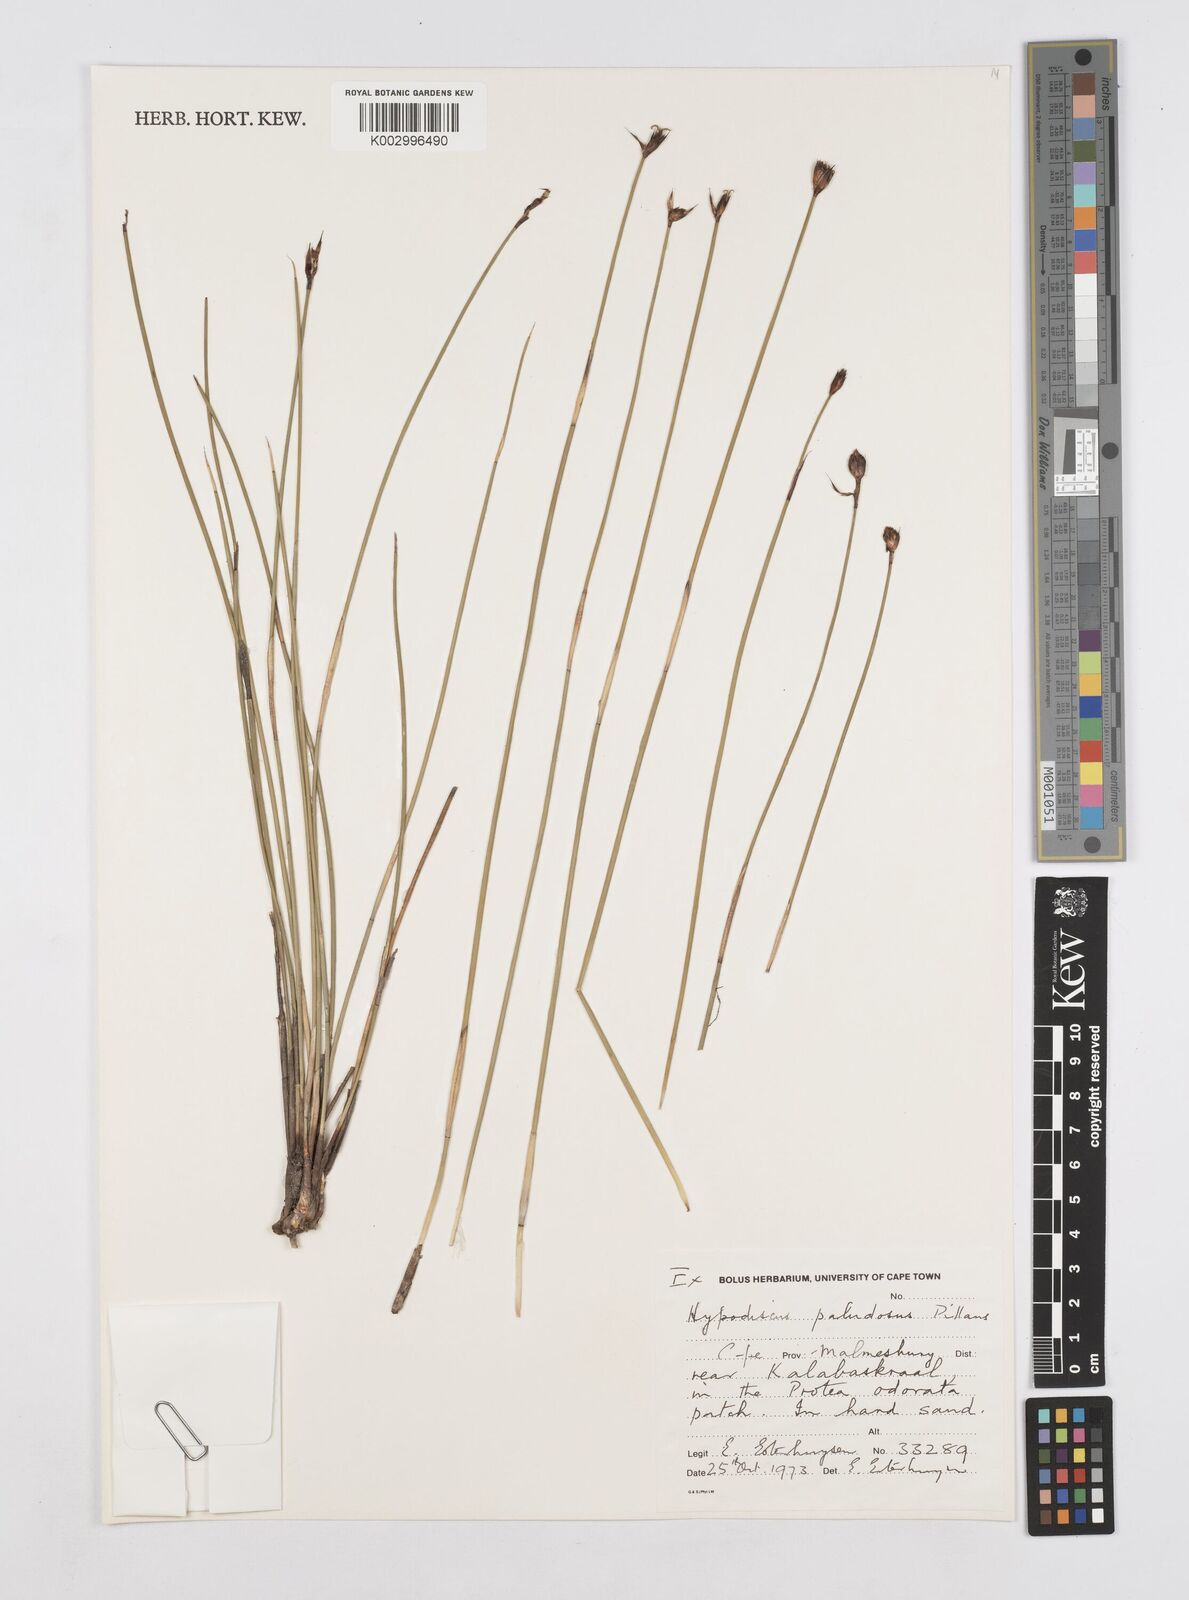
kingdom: Plantae
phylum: Tracheophyta
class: Liliopsida
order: Poales
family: Restionaceae
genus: Hypodiscus
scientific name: Hypodiscus rugosus
